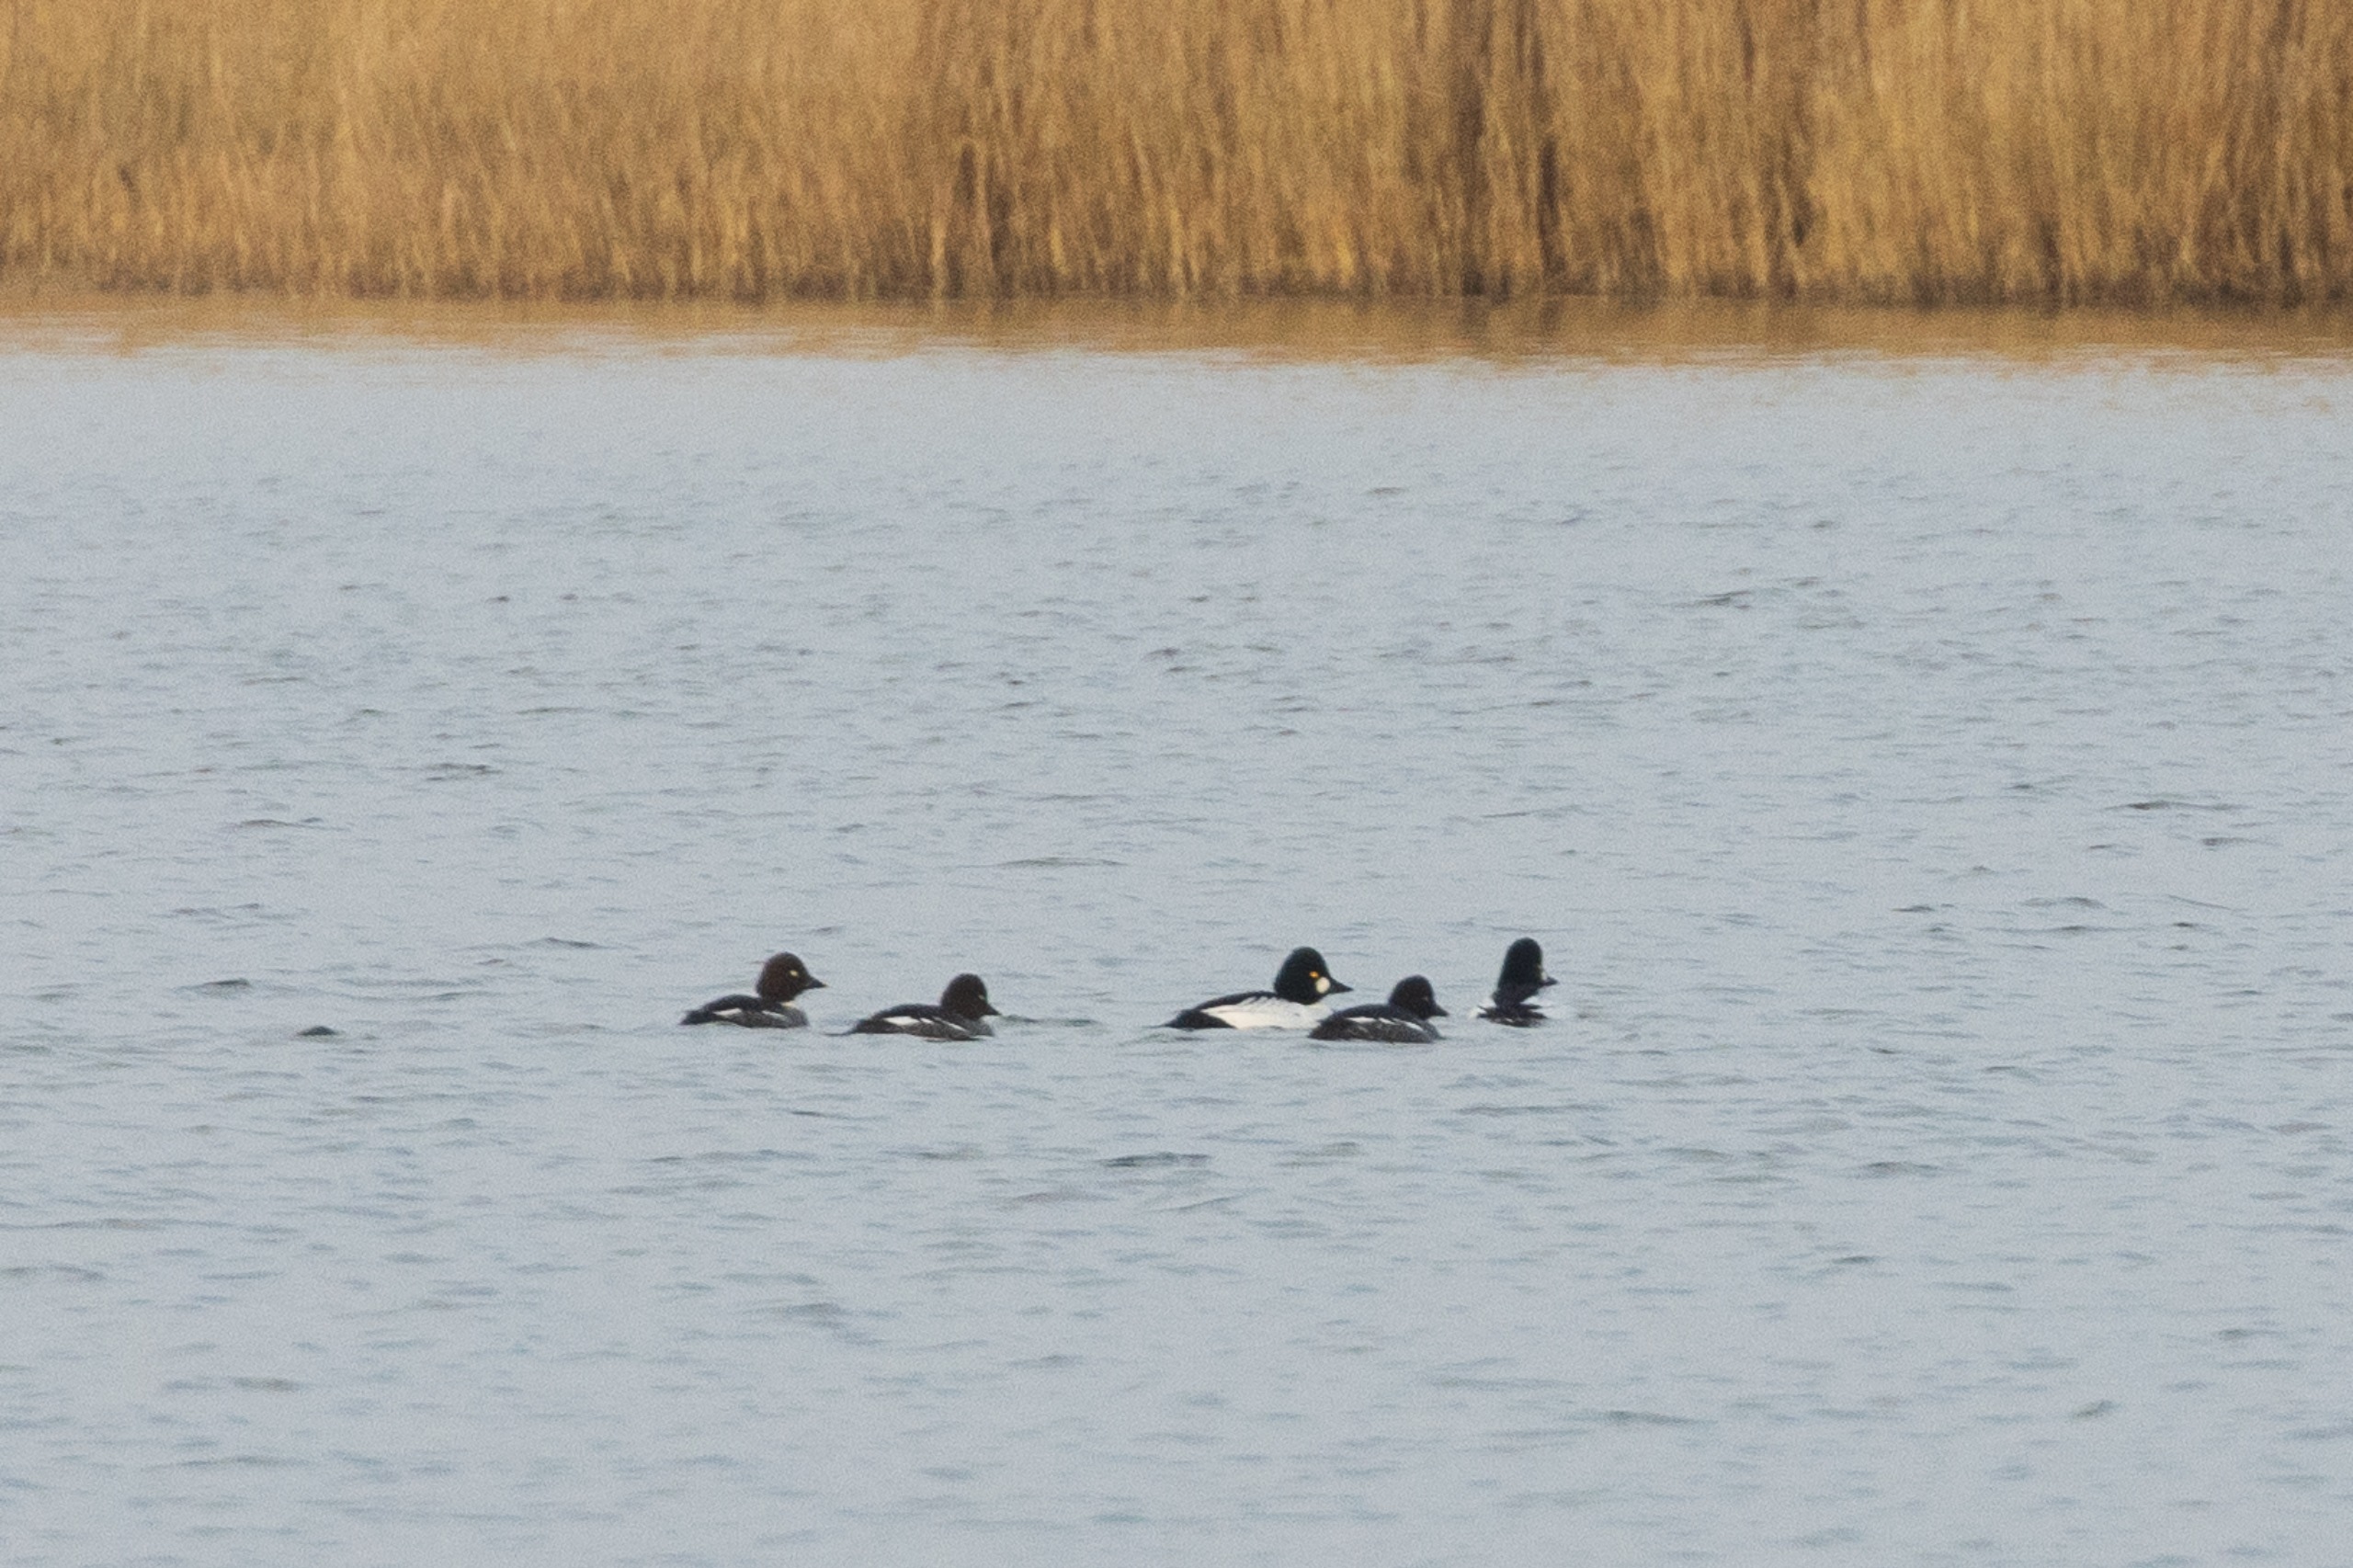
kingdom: Animalia
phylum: Chordata
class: Aves
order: Anseriformes
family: Anatidae
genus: Bucephala
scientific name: Bucephala clangula
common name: Hvinand
